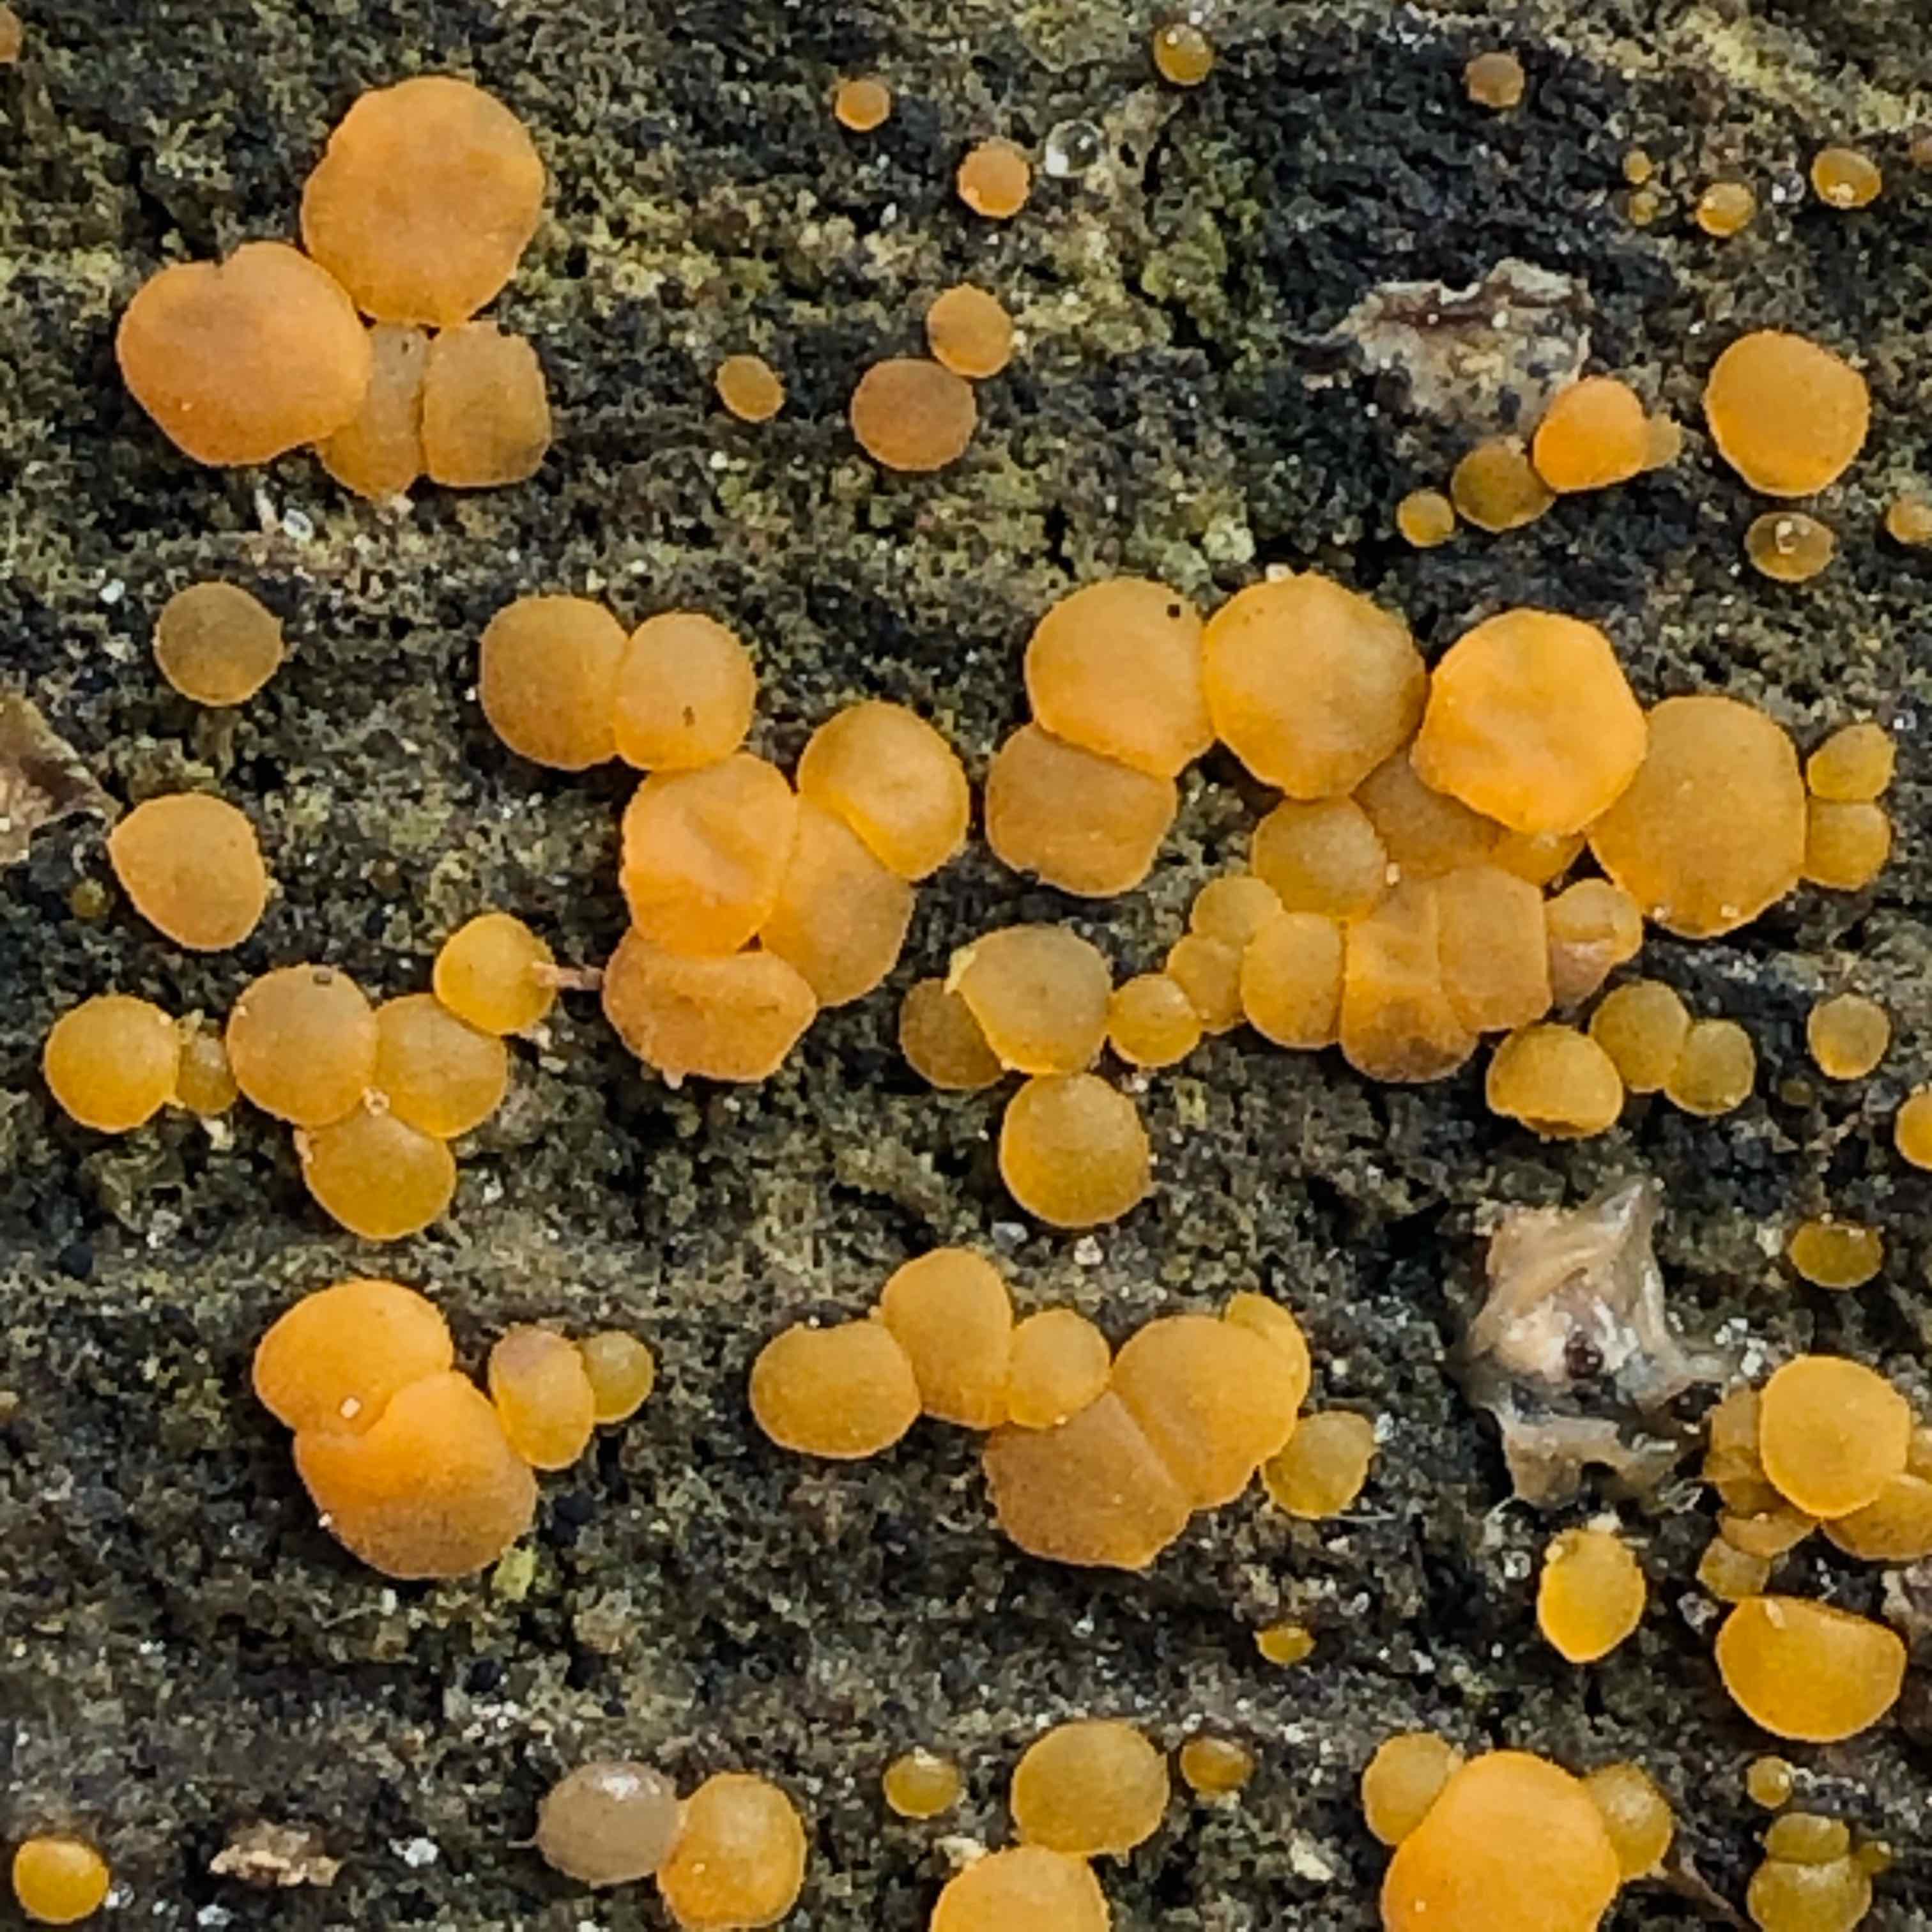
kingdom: Fungi
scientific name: Fungi
